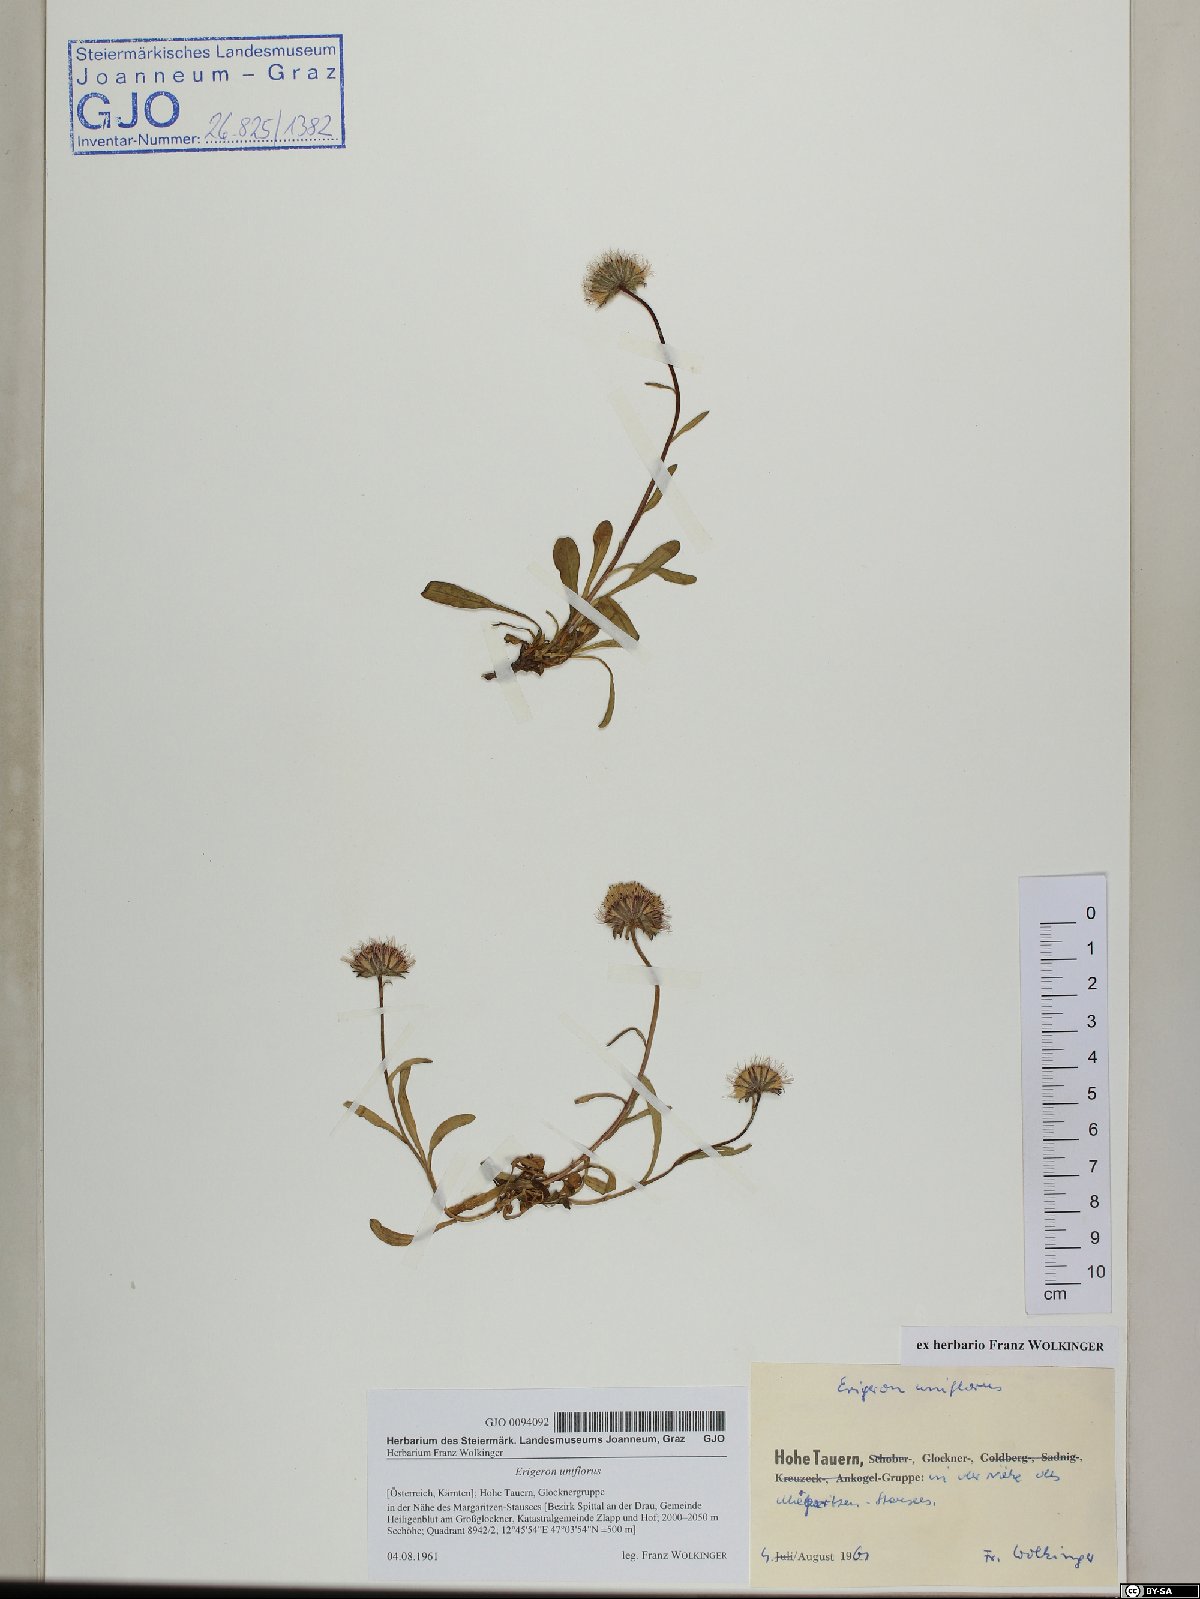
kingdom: Plantae
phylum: Tracheophyta
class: Magnoliopsida
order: Asterales
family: Asteraceae
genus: Erigeron
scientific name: Erigeron uniflorus
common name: Northern daisy
